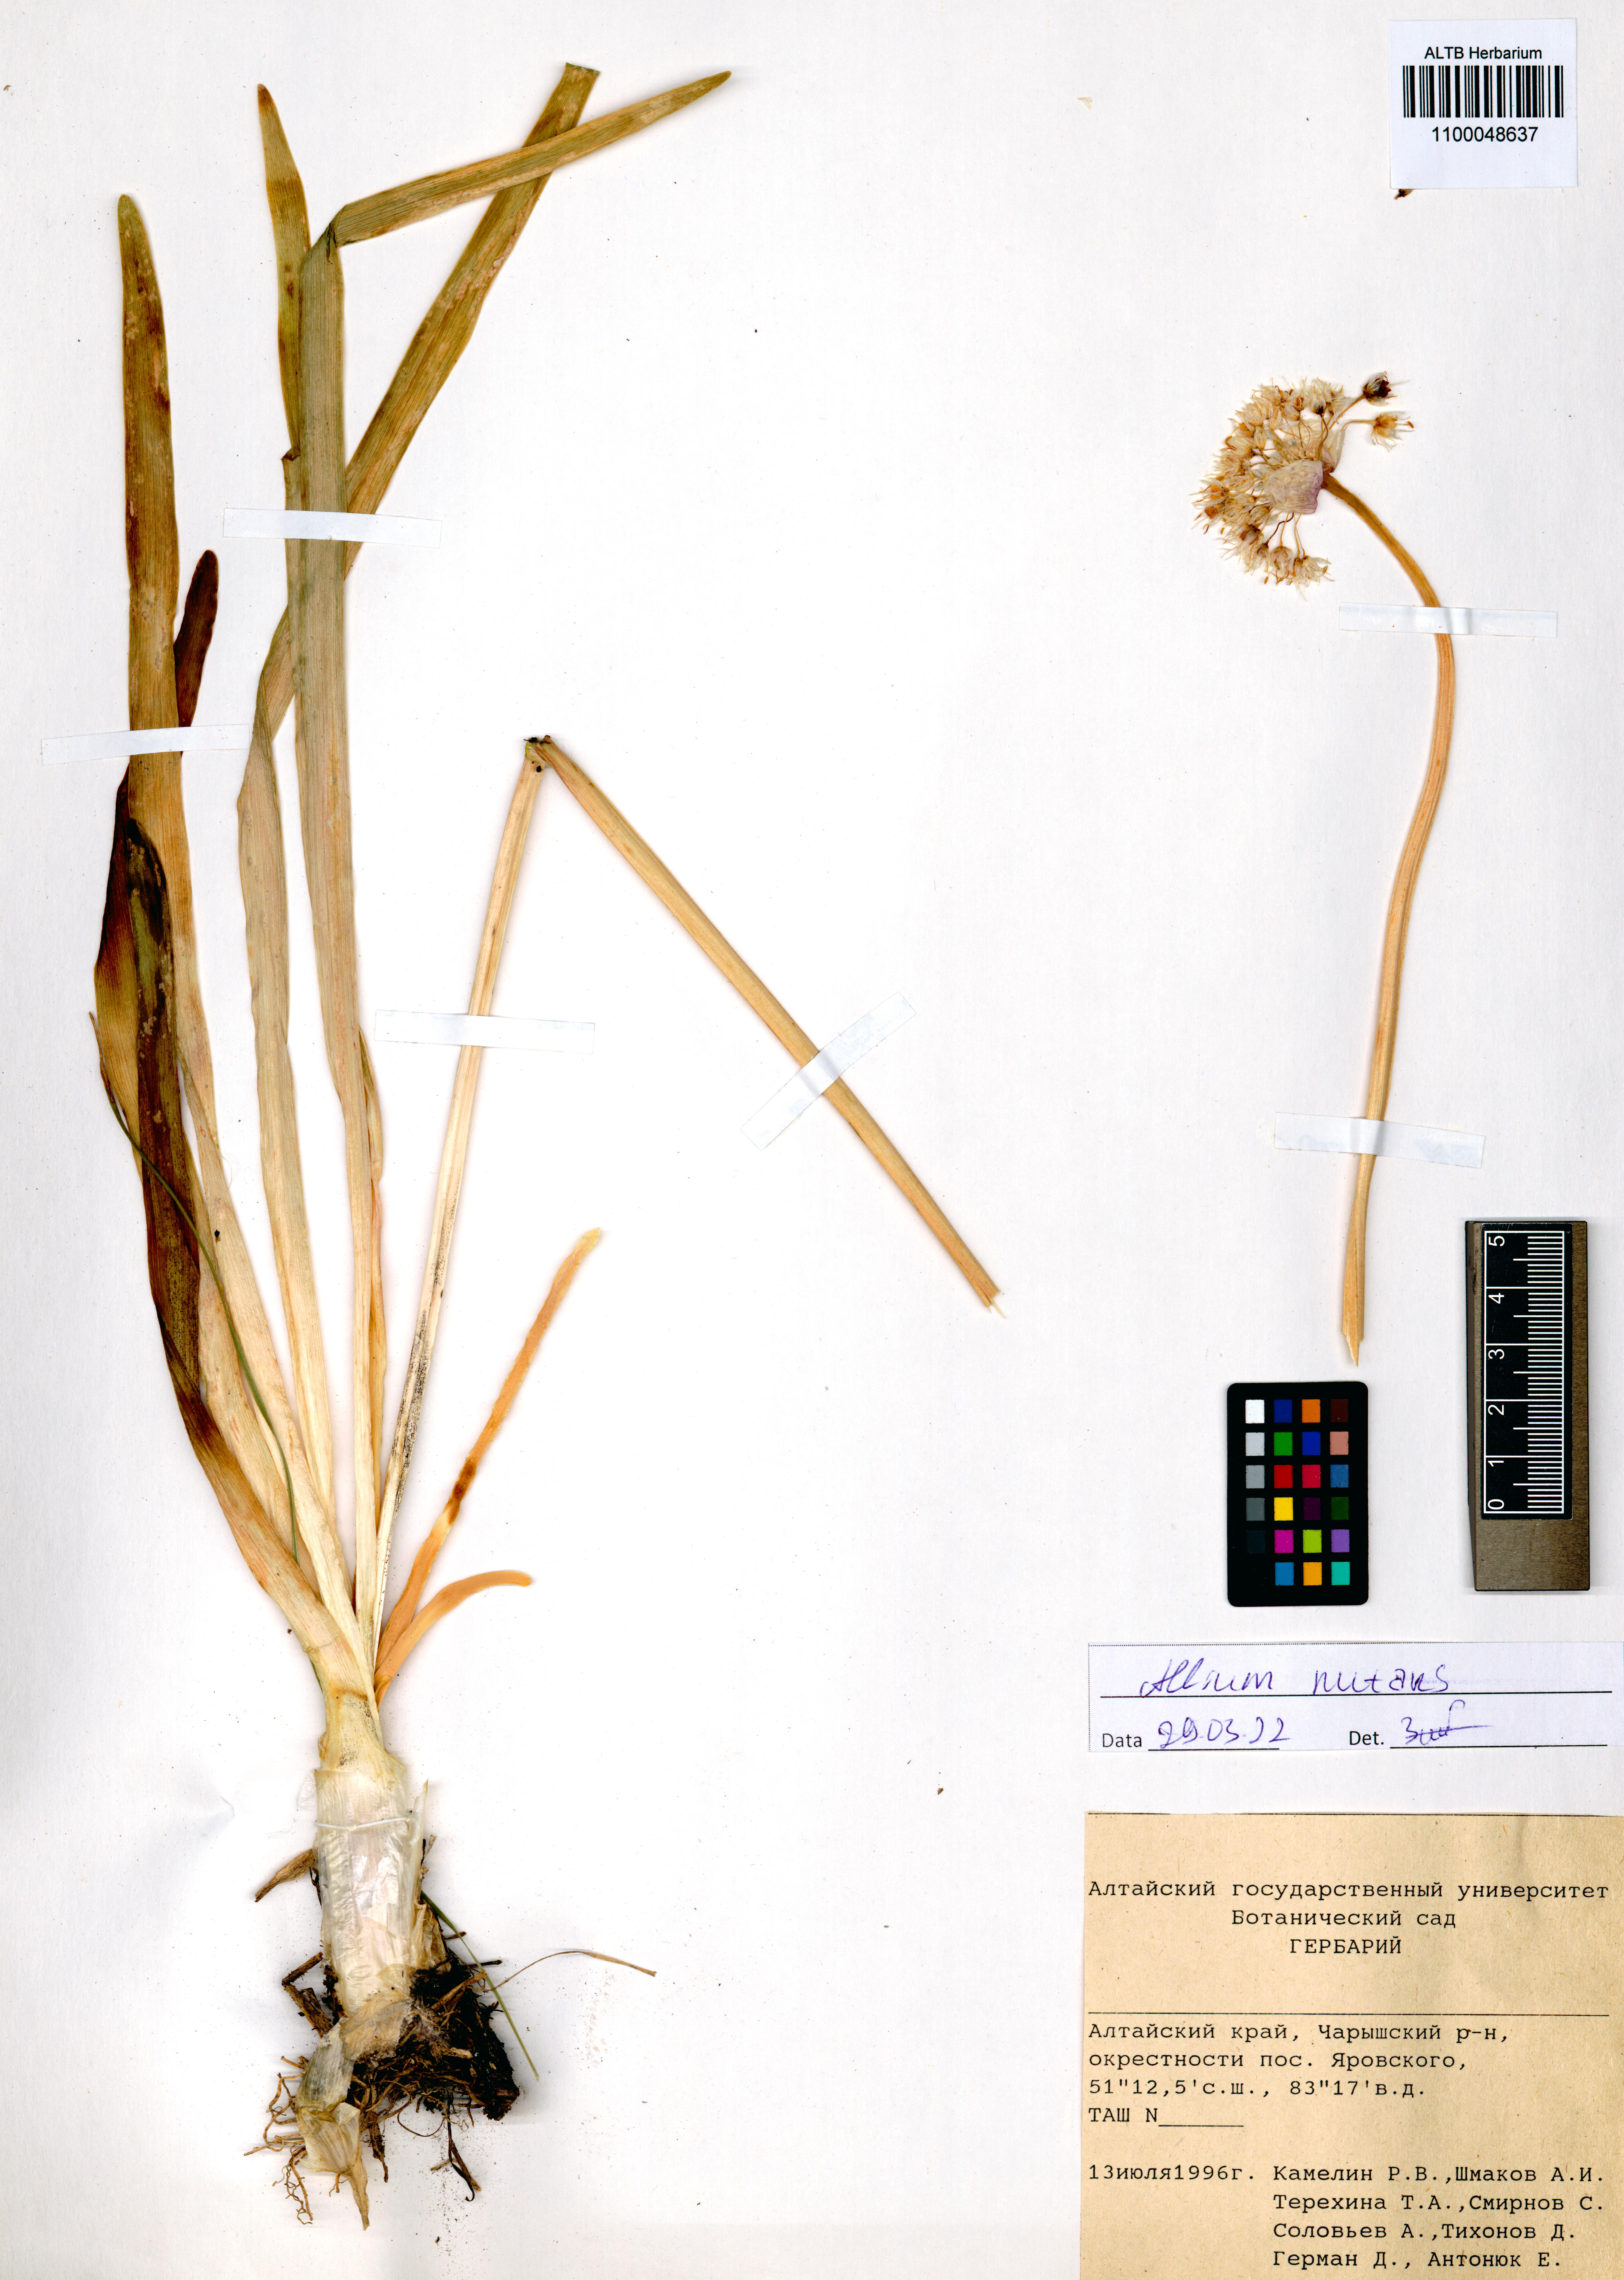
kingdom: Plantae
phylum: Tracheophyta
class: Liliopsida
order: Asparagales
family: Amaryllidaceae
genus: Allium
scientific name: Allium nutans
